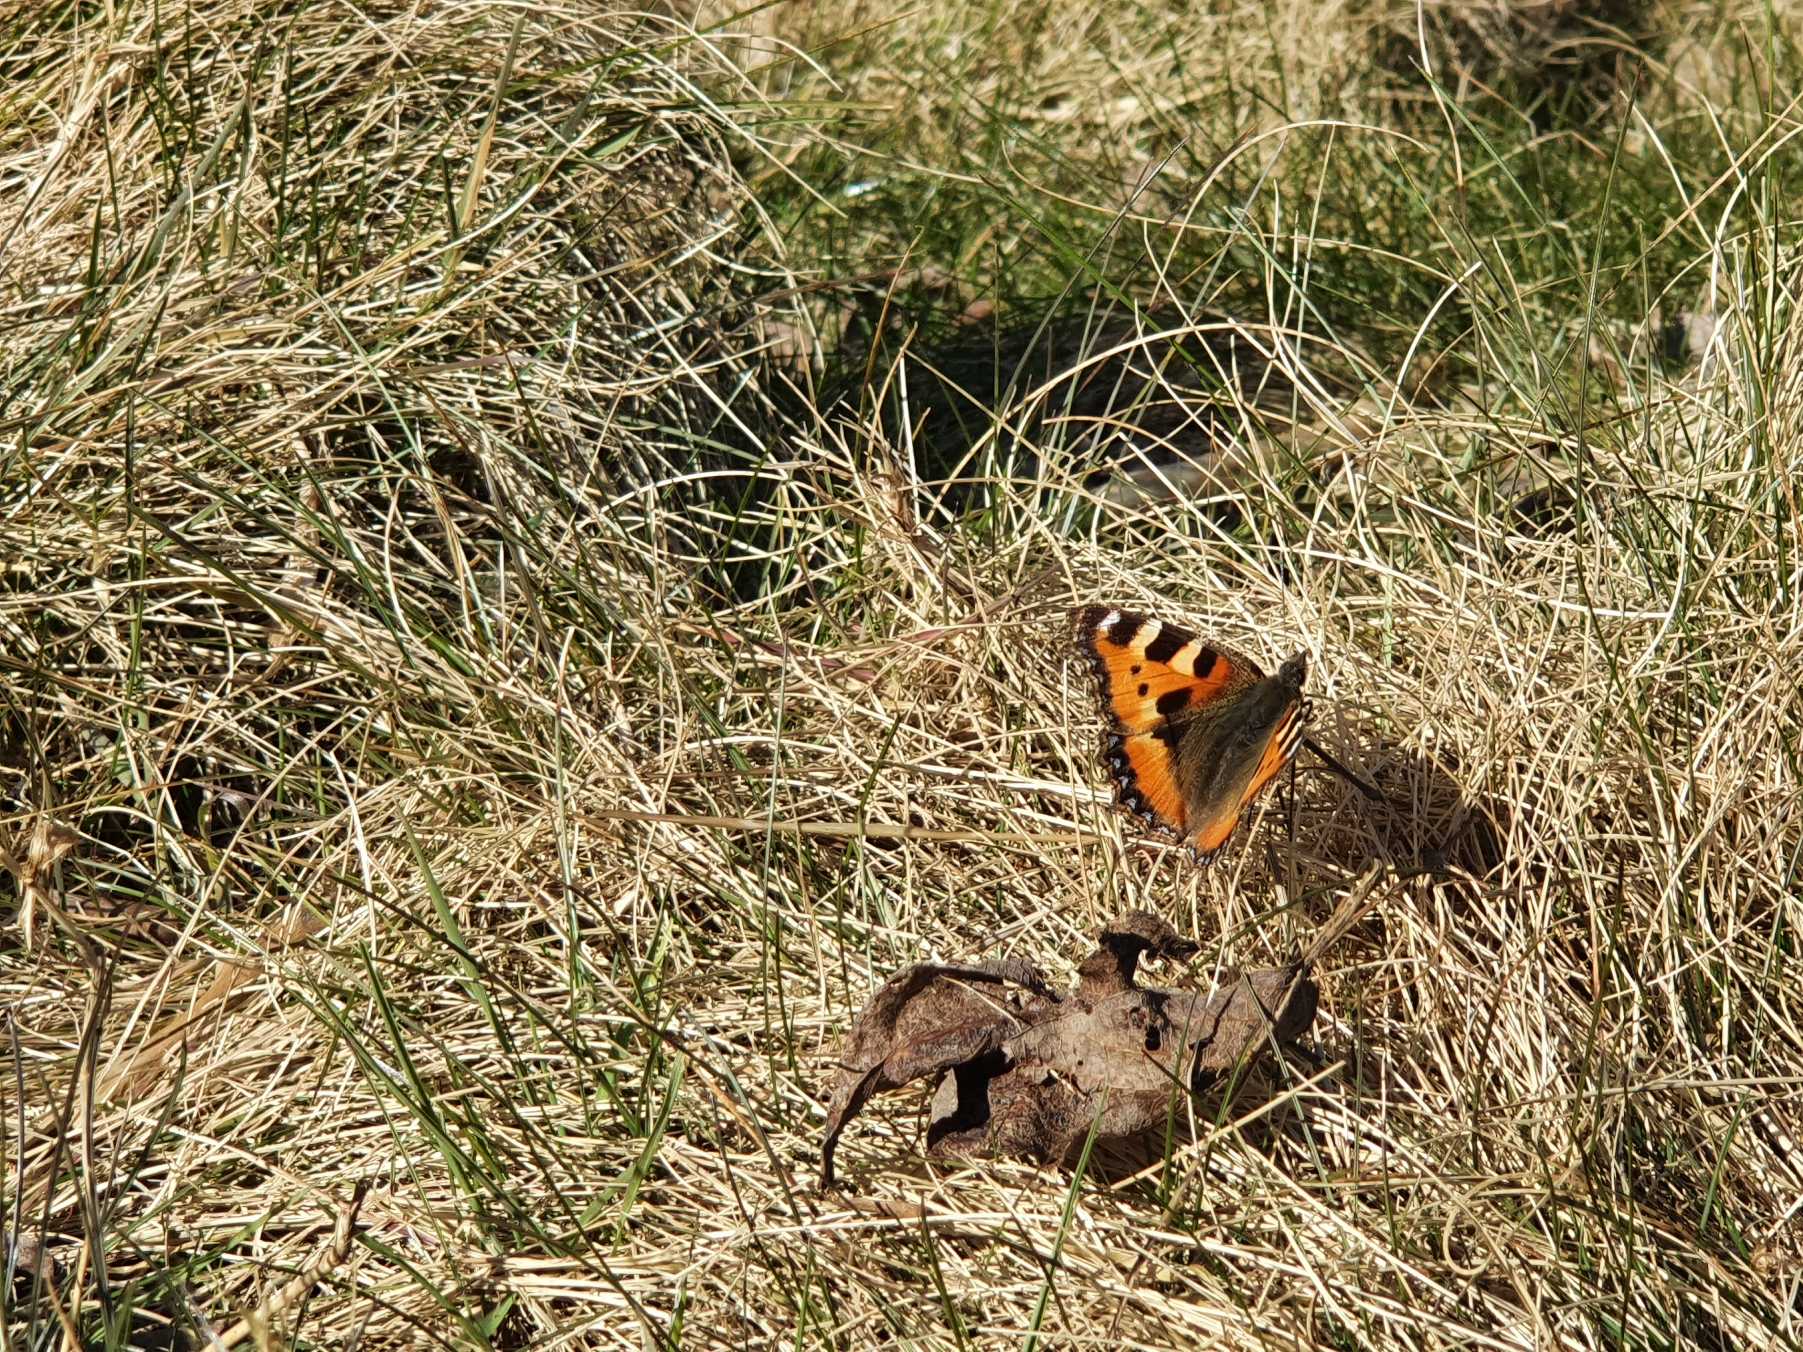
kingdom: Animalia
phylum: Arthropoda
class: Insecta
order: Lepidoptera
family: Nymphalidae
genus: Aglais
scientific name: Aglais urticae
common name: Nældens takvinge
